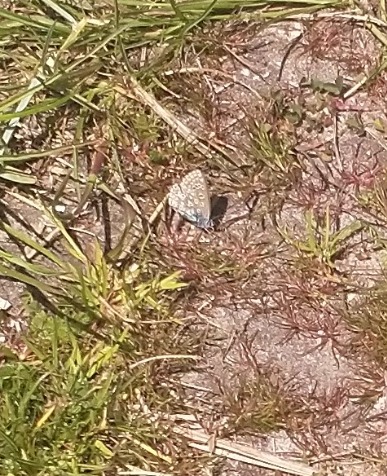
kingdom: Animalia
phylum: Arthropoda
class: Insecta
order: Lepidoptera
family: Lycaenidae
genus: Polyommatus
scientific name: Polyommatus icarus
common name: Almindelig blåfugl
